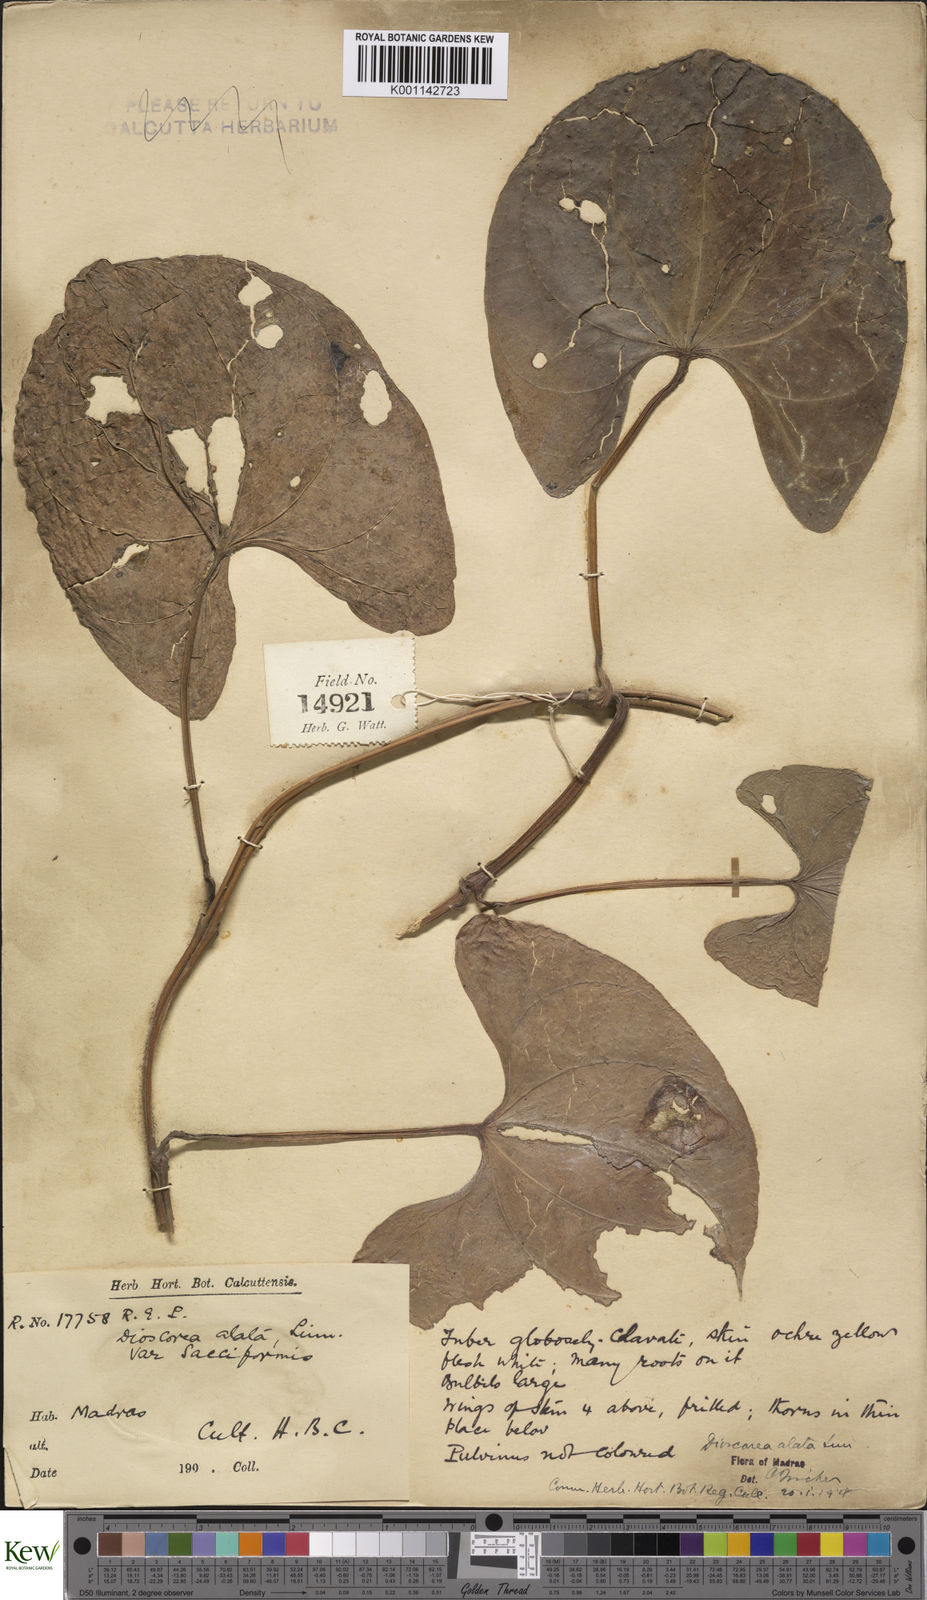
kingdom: Plantae
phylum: Tracheophyta
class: Liliopsida
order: Dioscoreales
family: Dioscoreaceae
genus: Dioscorea
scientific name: Dioscorea alata
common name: Water yam
